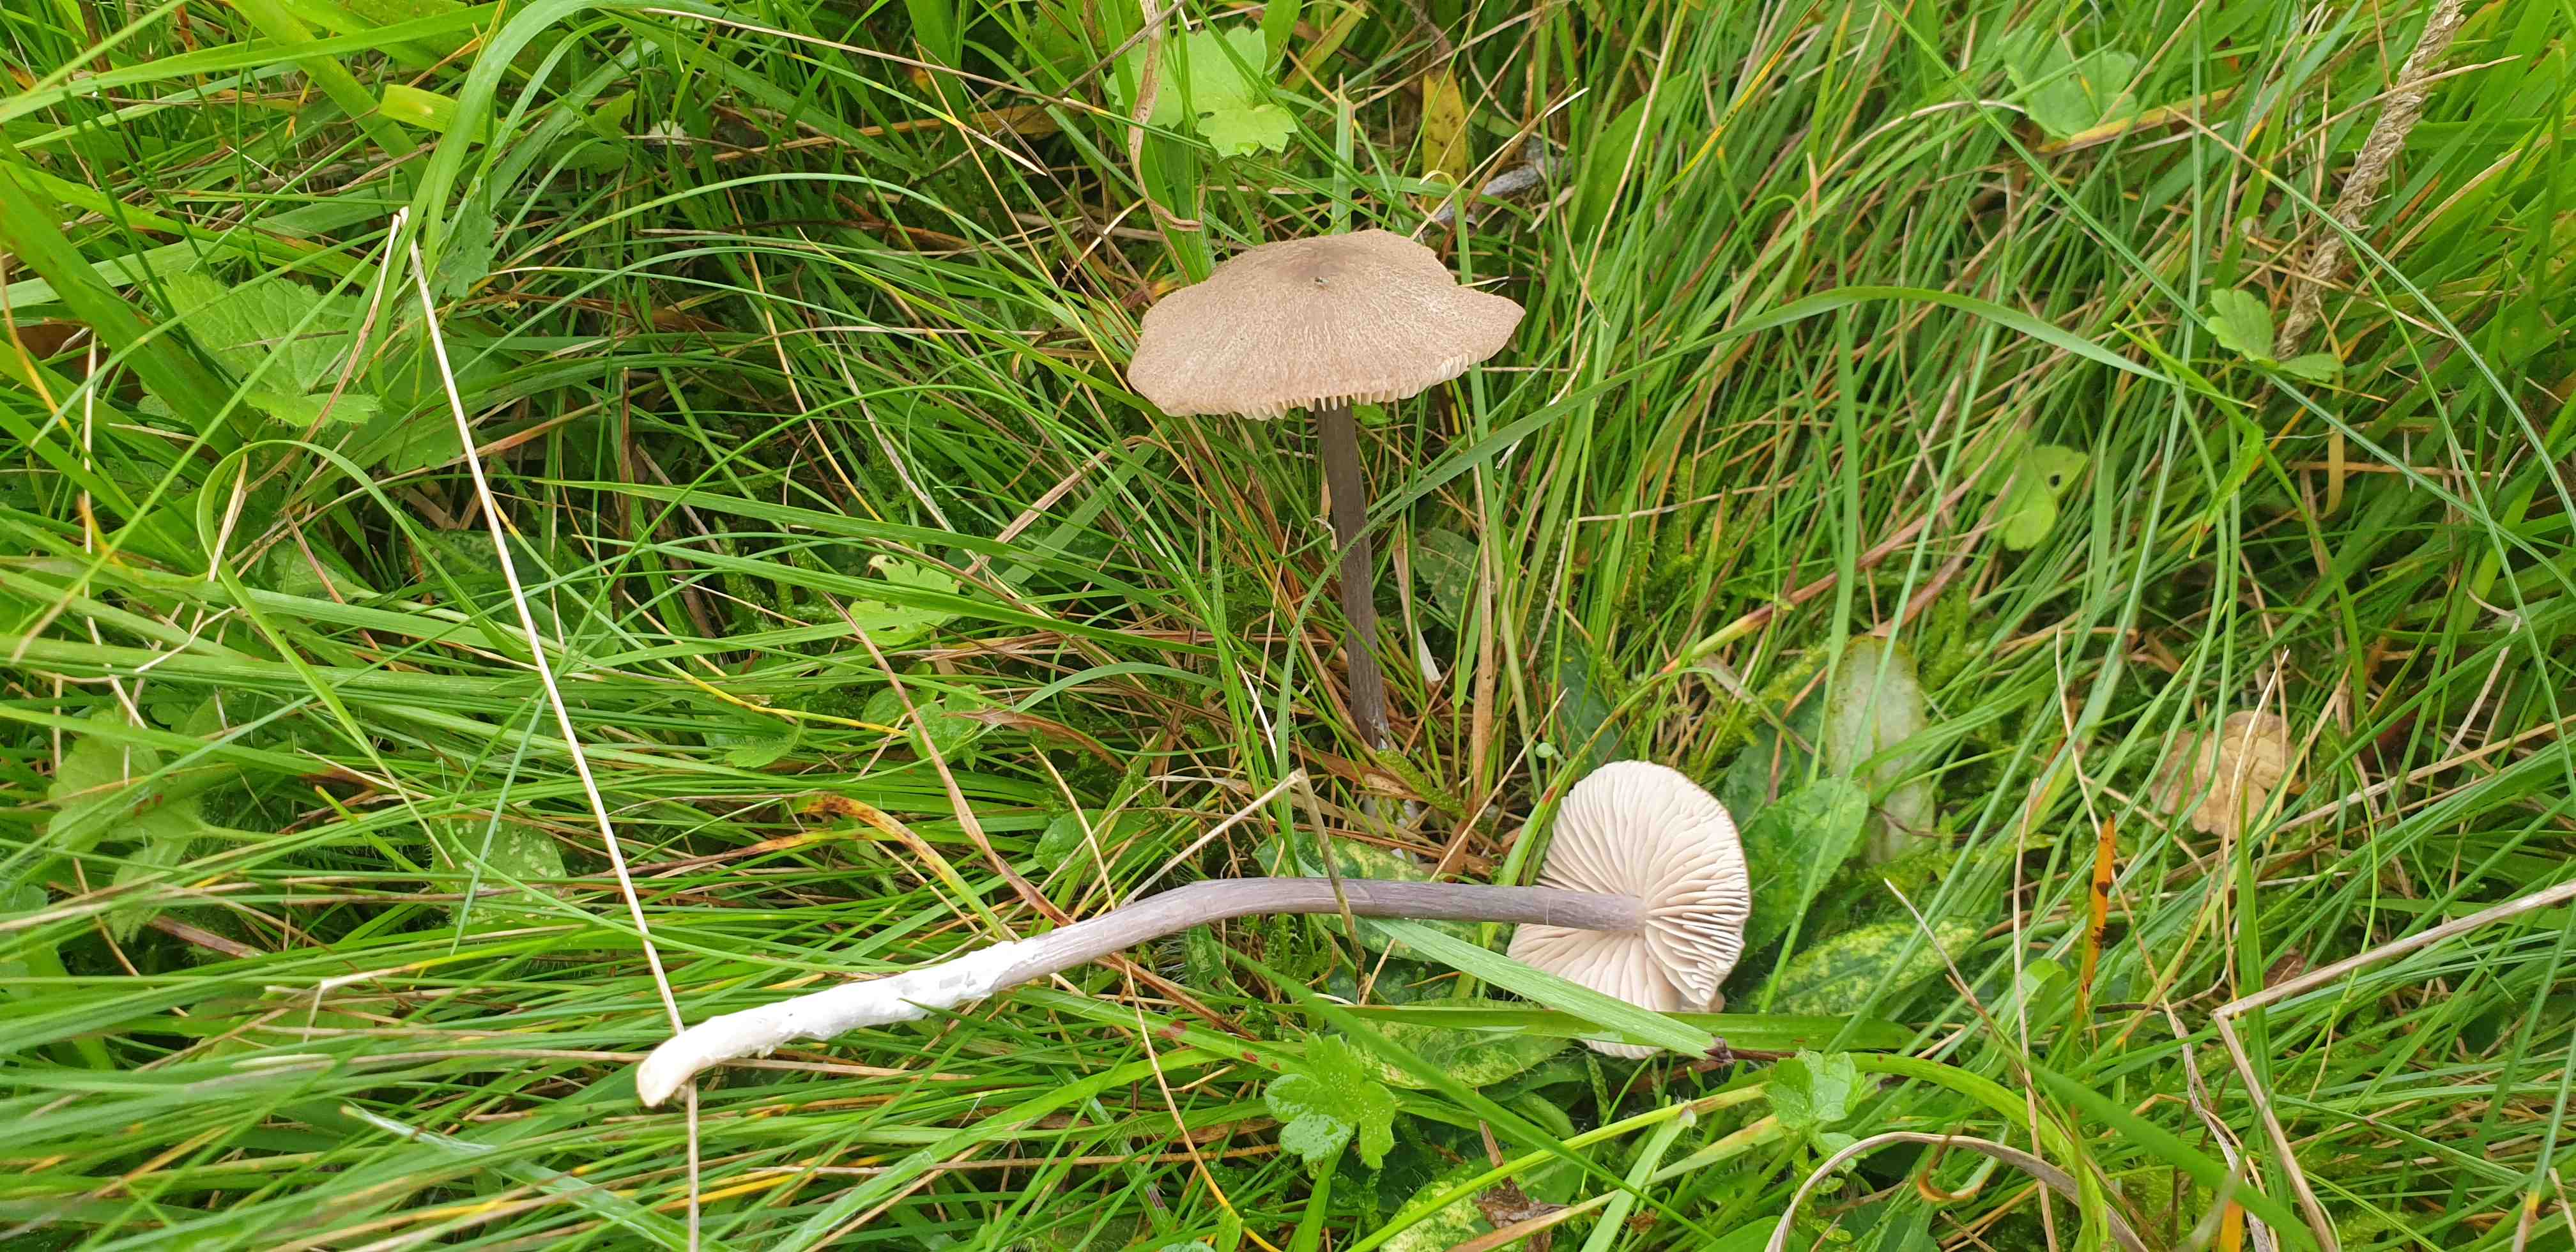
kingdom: Fungi
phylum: Basidiomycota
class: Agaricomycetes
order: Agaricales
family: Entolomataceae
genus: Entoloma
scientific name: Entoloma griseocyaneum
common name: gråblå rødblad
